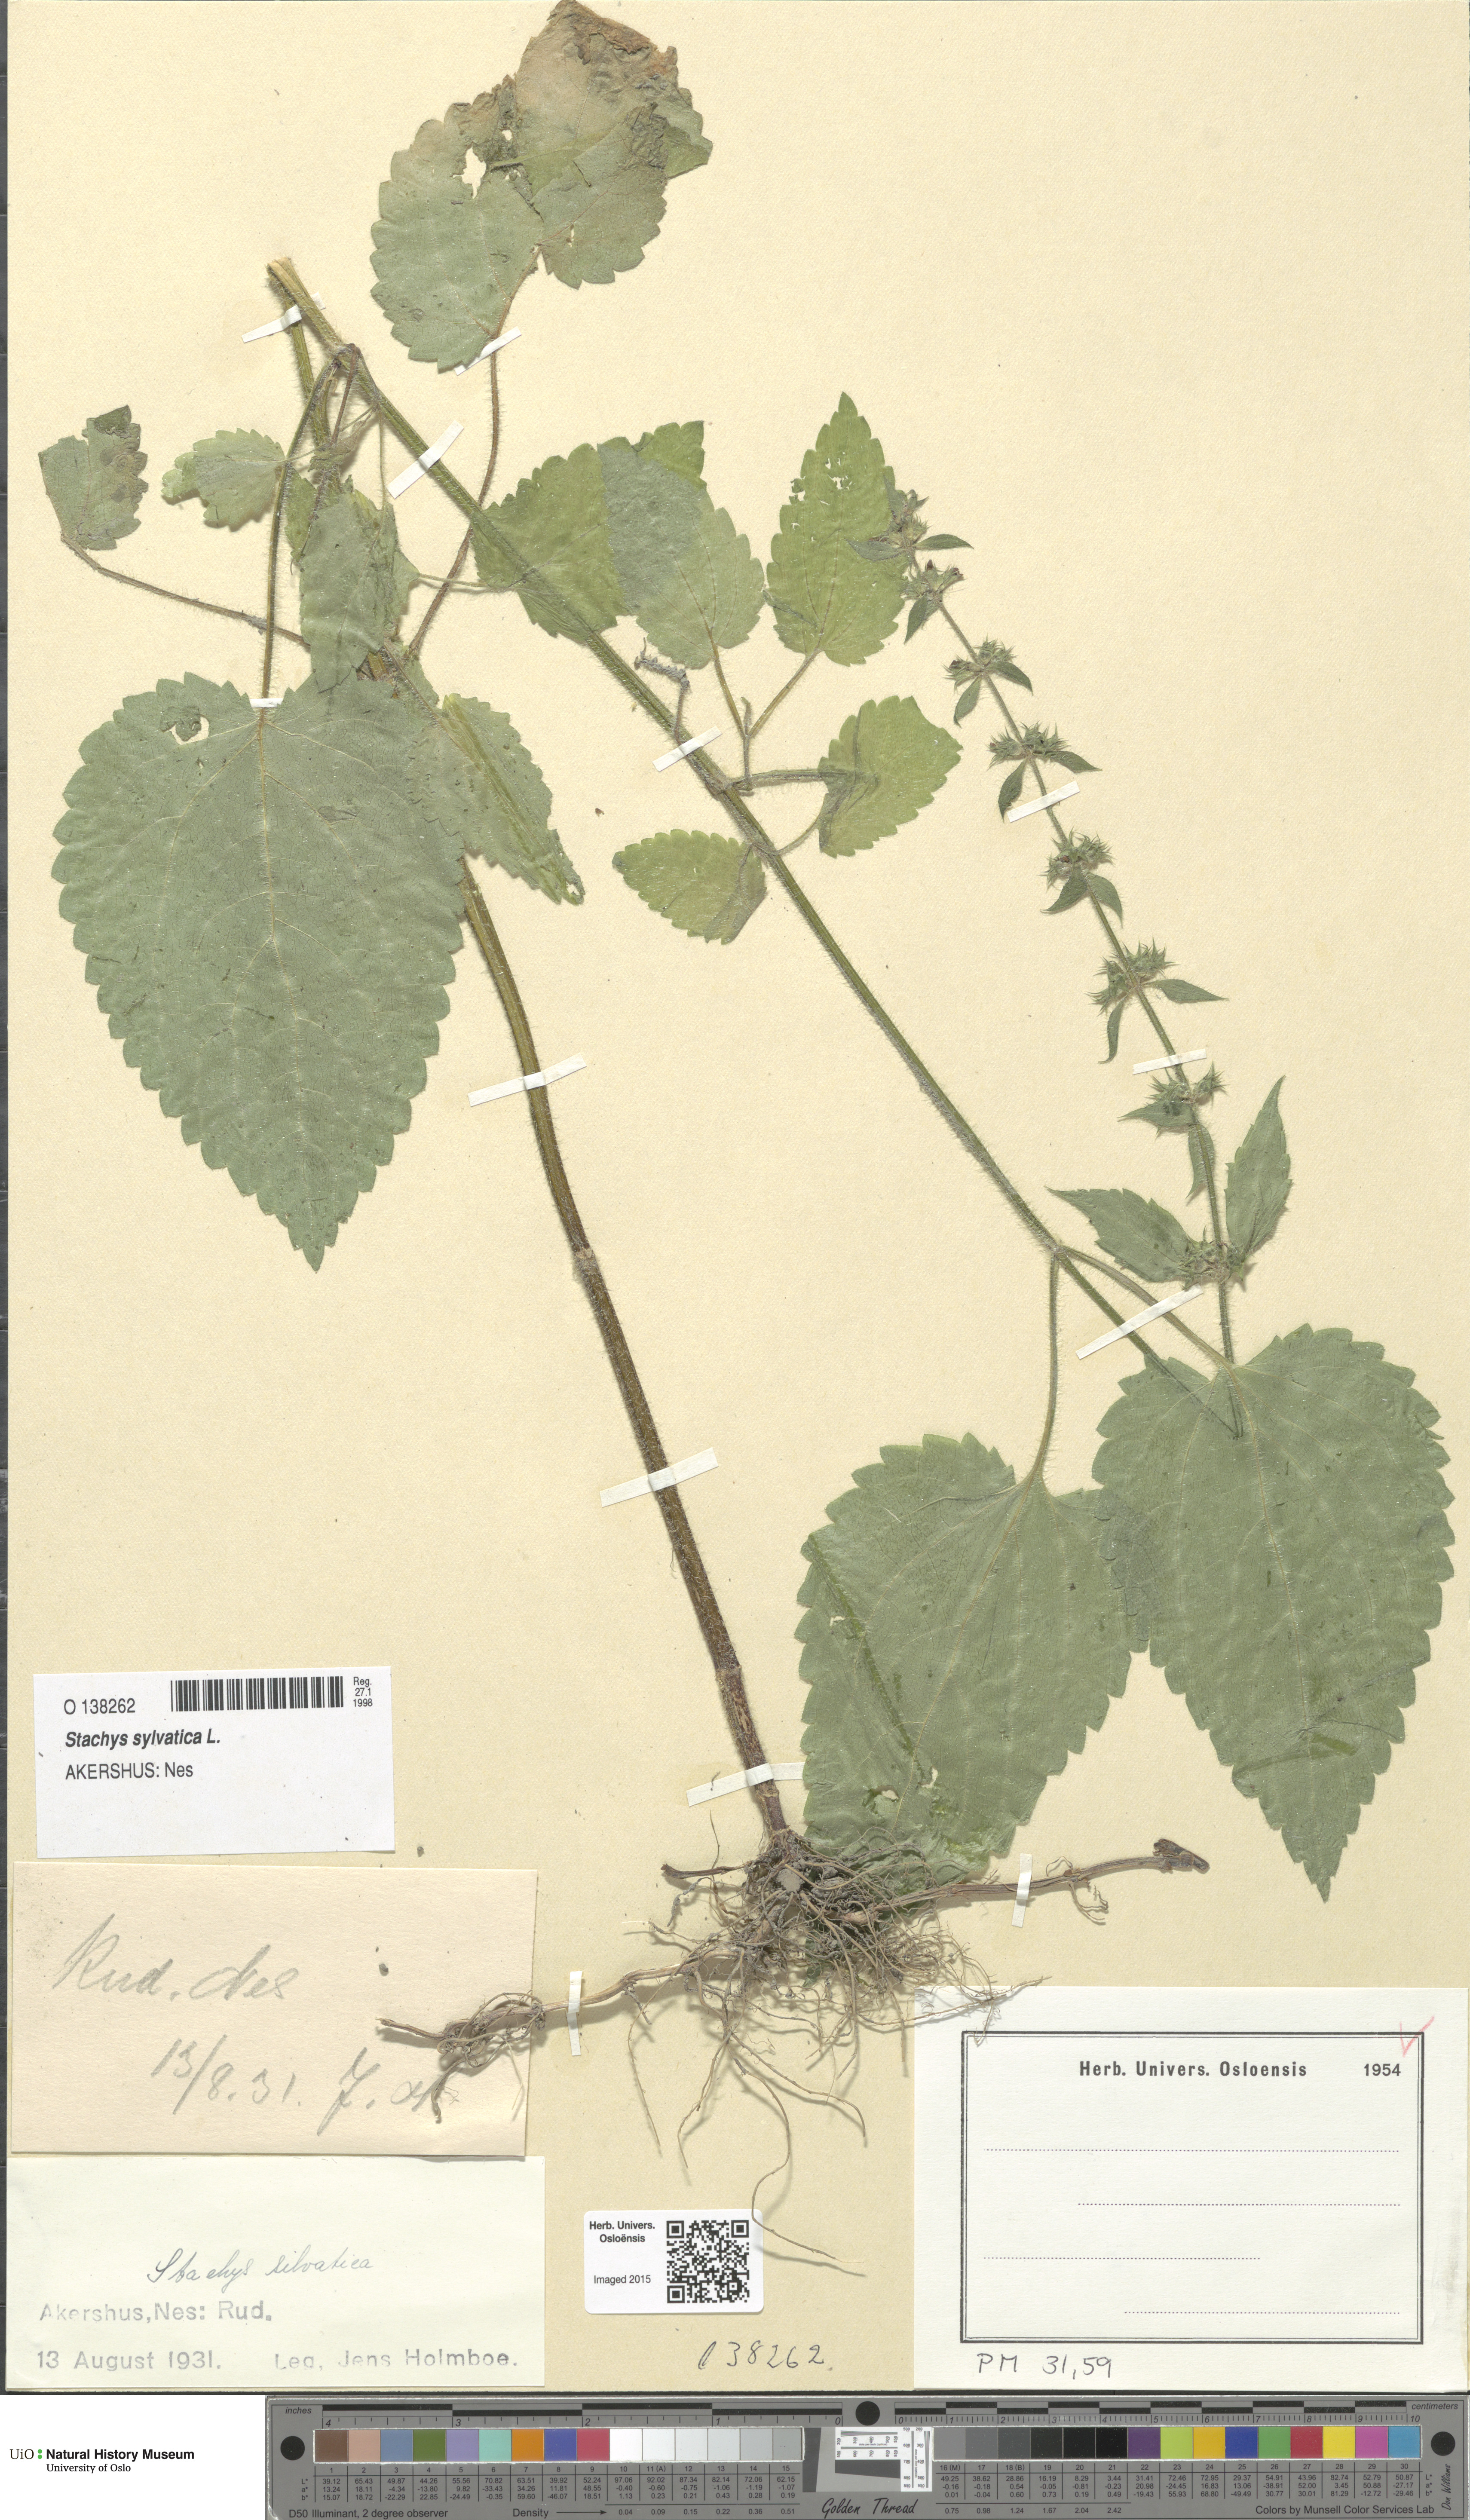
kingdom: Plantae
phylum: Tracheophyta
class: Magnoliopsida
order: Lamiales
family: Lamiaceae
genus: Stachys
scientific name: Stachys sylvatica
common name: Hedge woundwort
